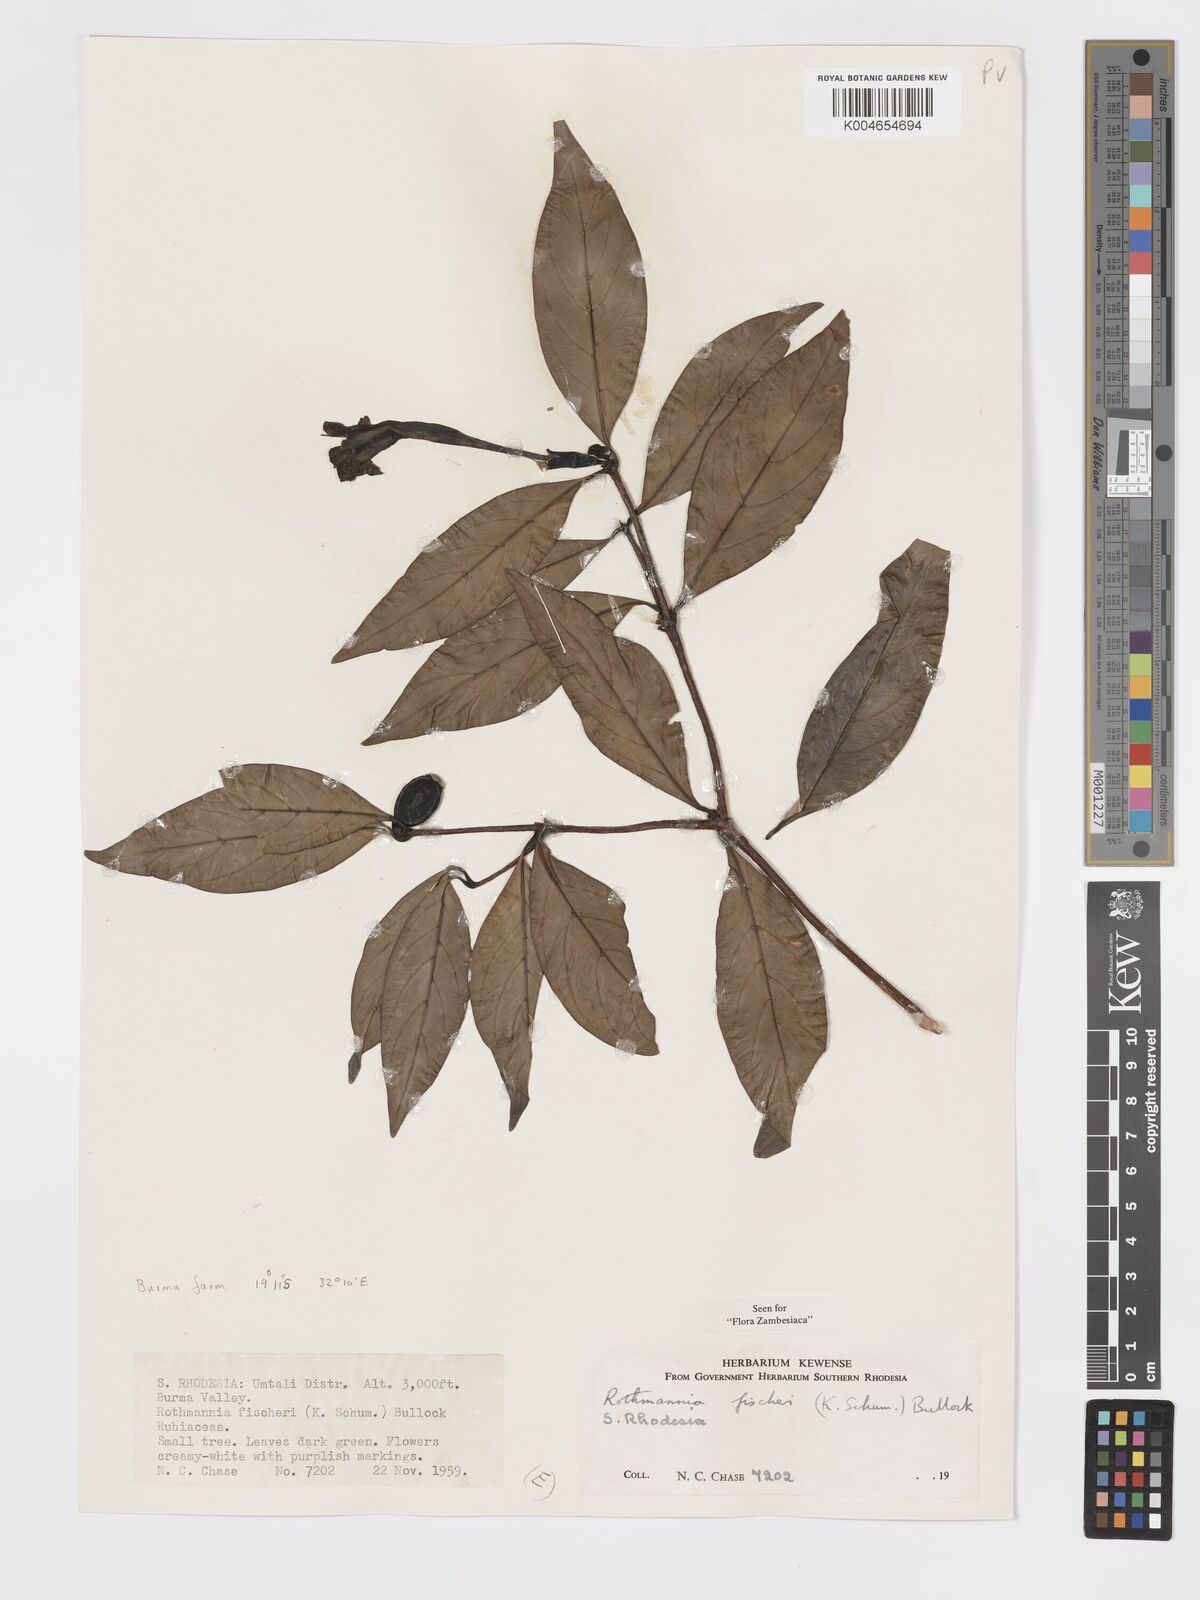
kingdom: Plantae
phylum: Tracheophyta
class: Magnoliopsida
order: Gentianales
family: Rubiaceae
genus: Rothmannia
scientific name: Rothmannia fischeri
